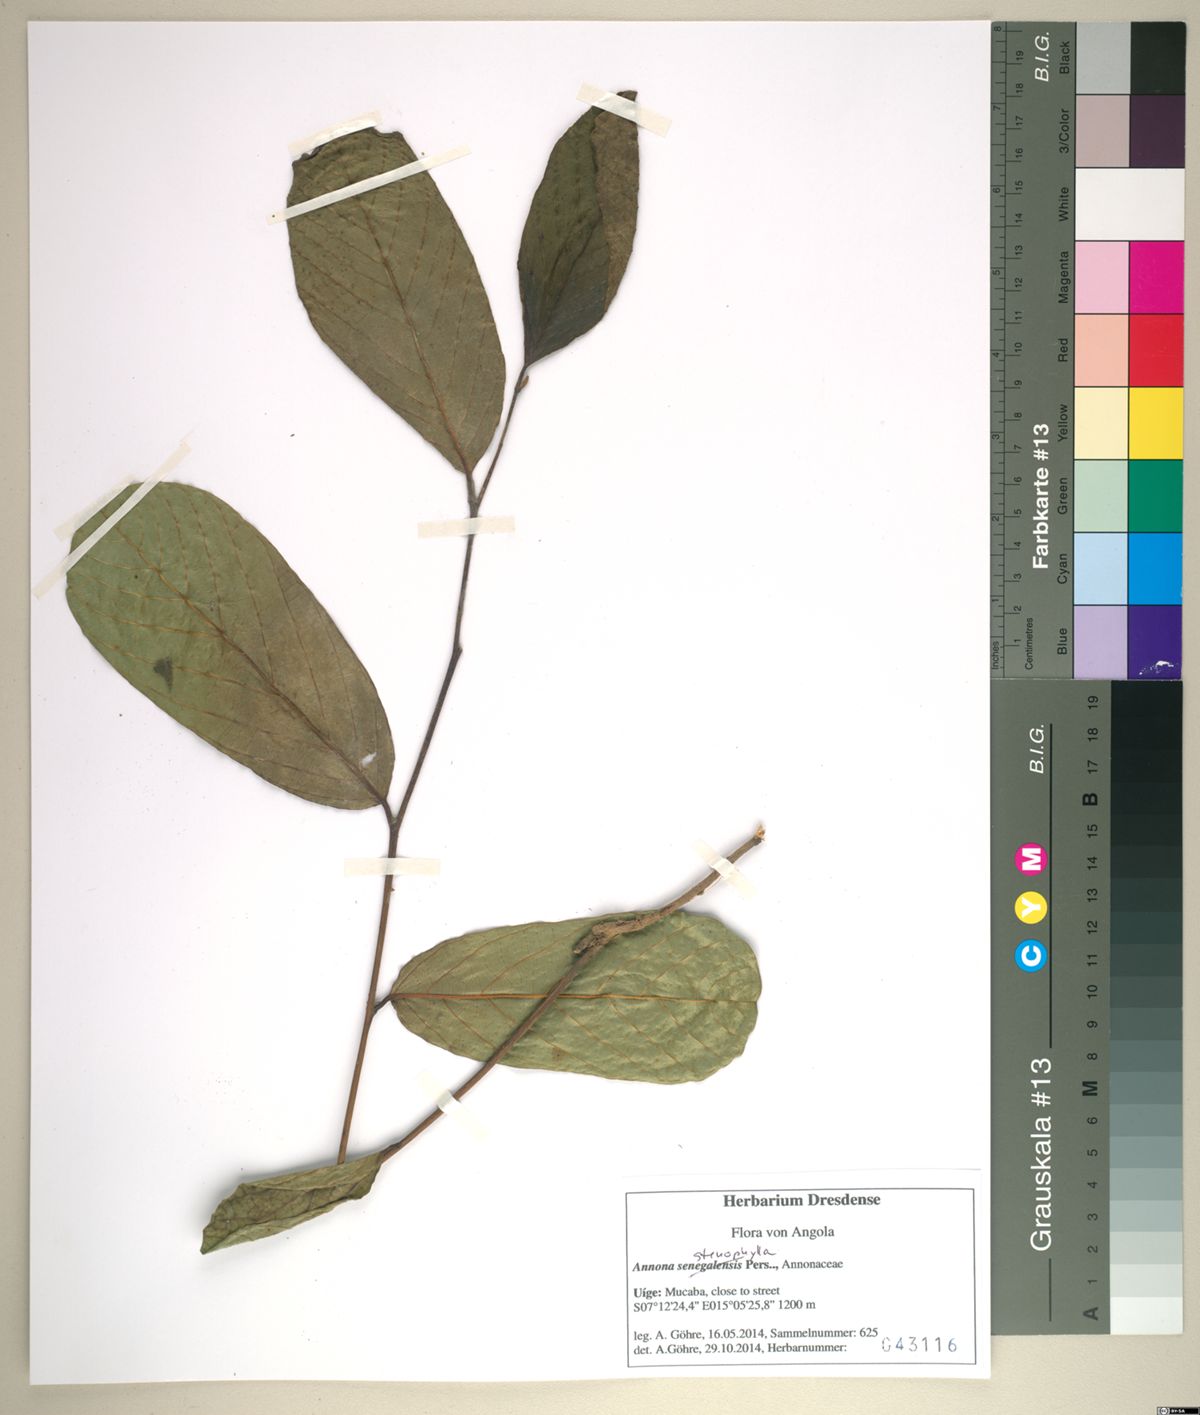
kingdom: Plantae
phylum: Tracheophyta
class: Magnoliopsida
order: Magnoliales
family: Annonaceae
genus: Annona
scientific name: Annona stenophylla
